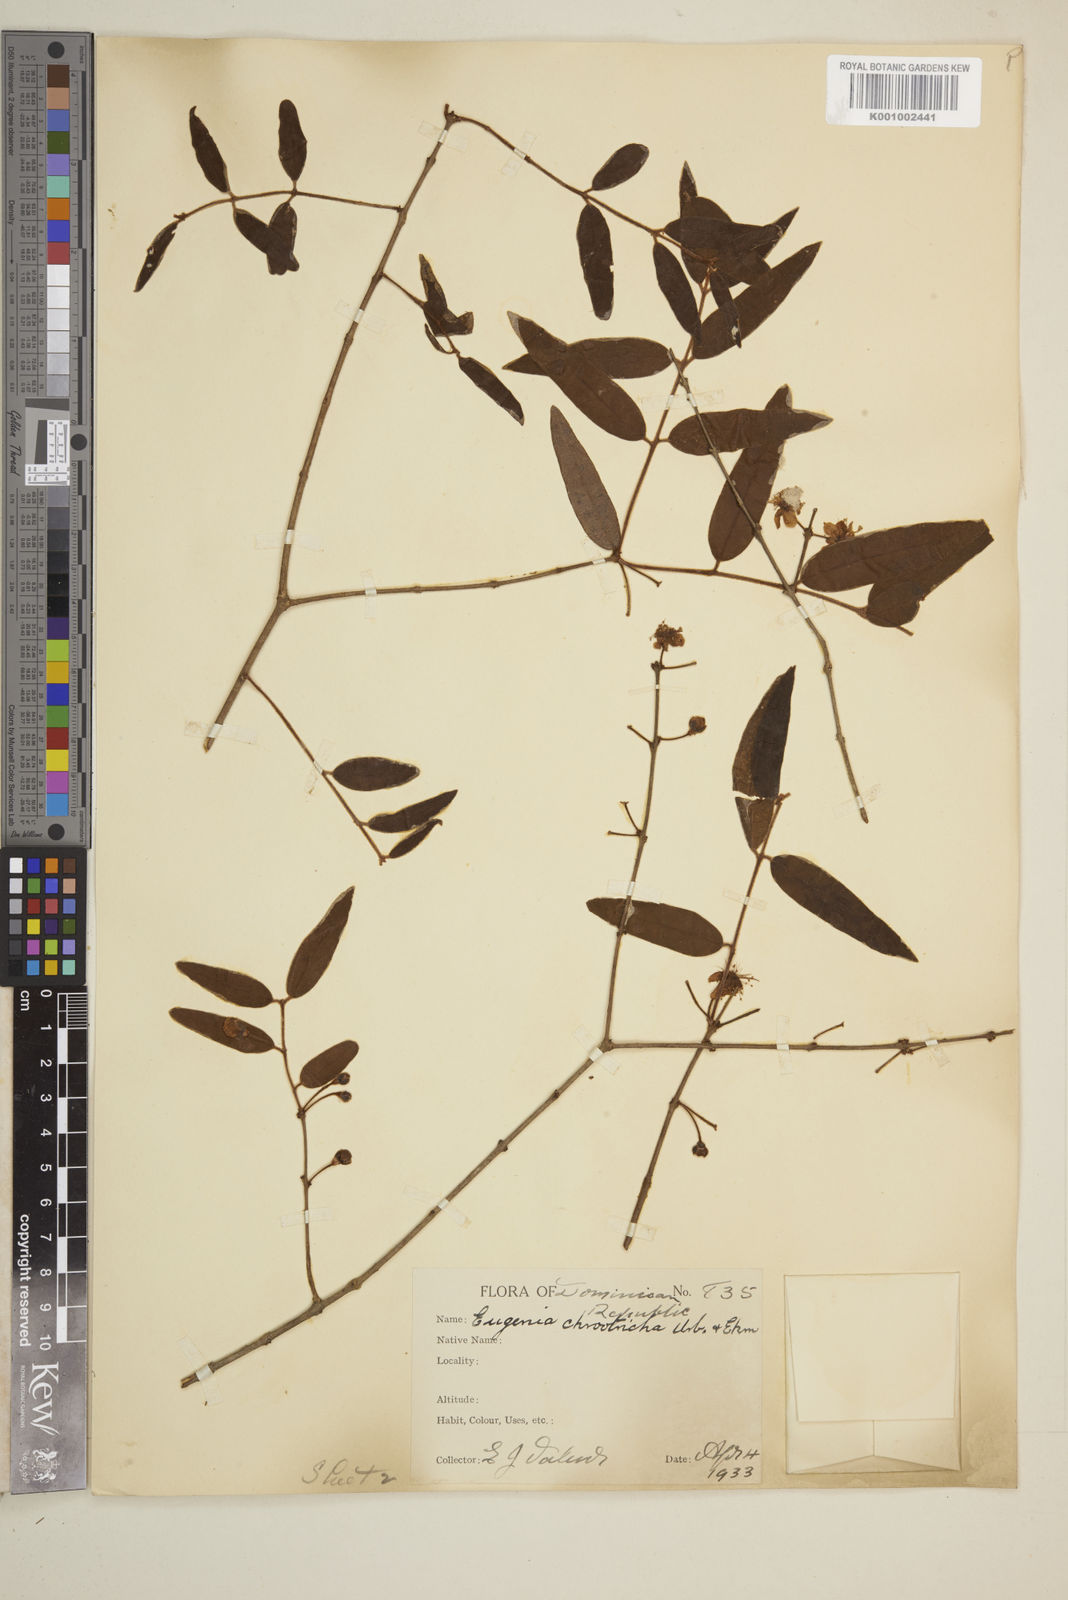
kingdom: Plantae
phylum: Tracheophyta
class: Magnoliopsida
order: Myrtales
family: Myrtaceae
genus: Eugenia
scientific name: Eugenia chrootricha
